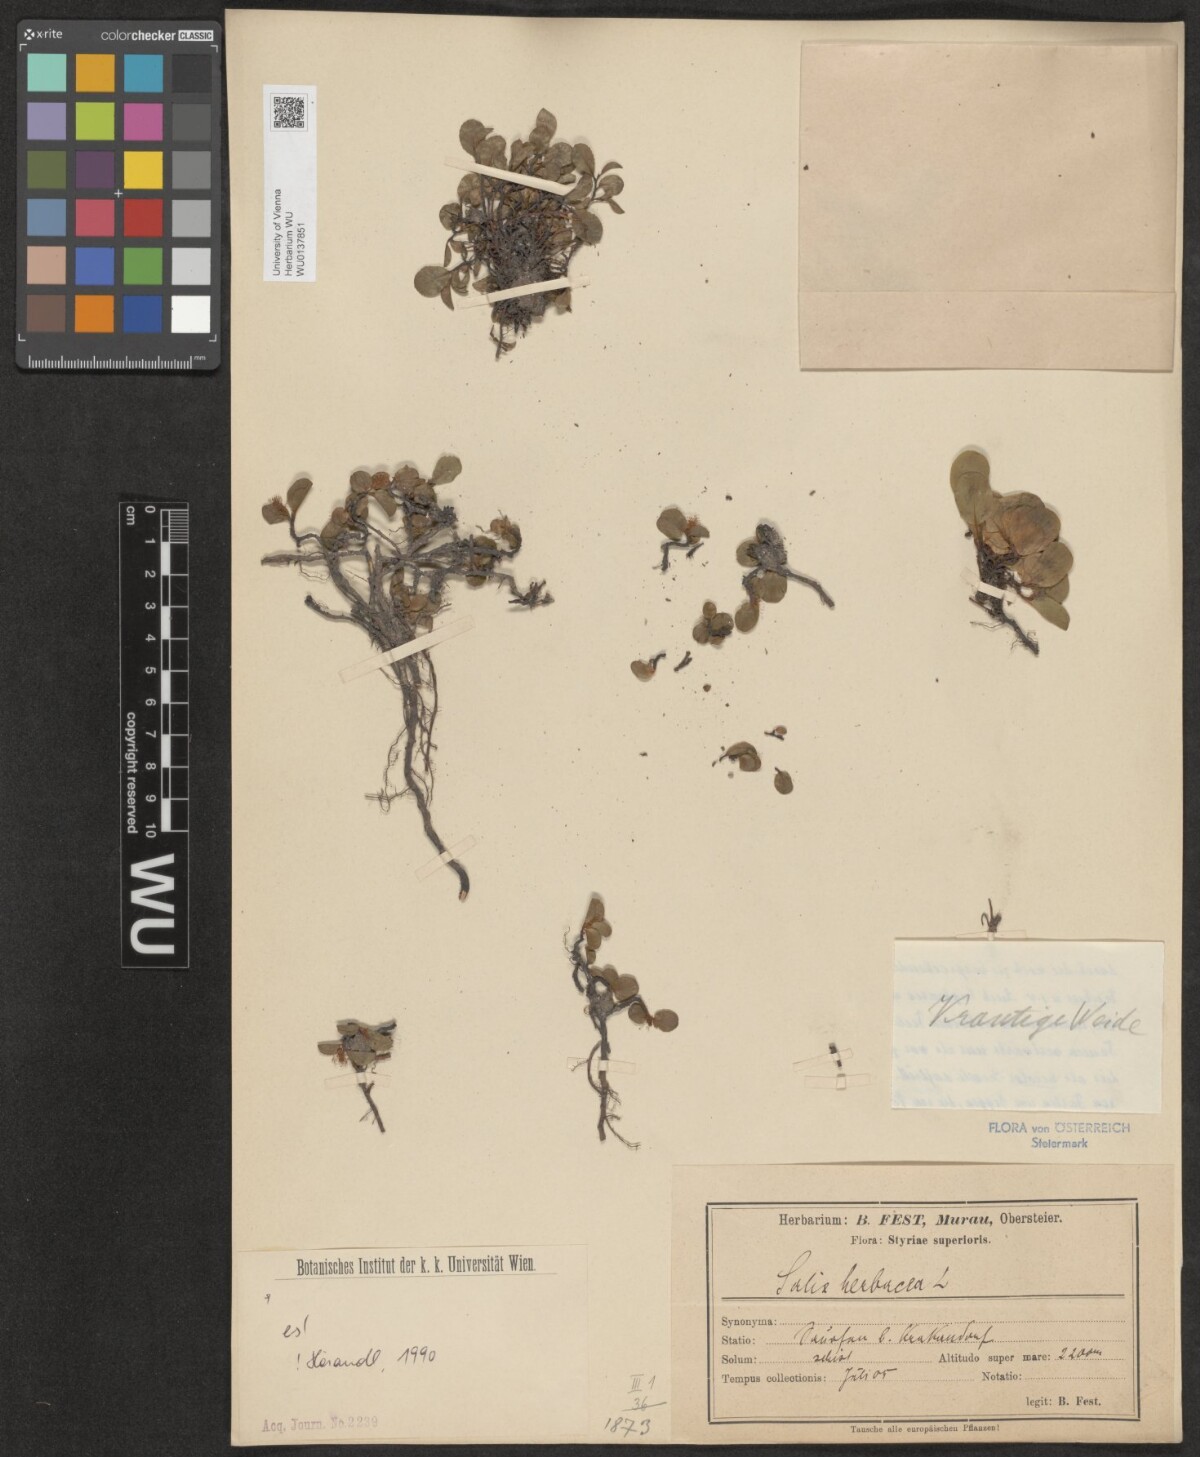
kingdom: Plantae
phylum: Tracheophyta
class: Magnoliopsida
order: Malpighiales
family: Salicaceae
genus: Salix
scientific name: Salix herbacea
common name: Dwarf willow
